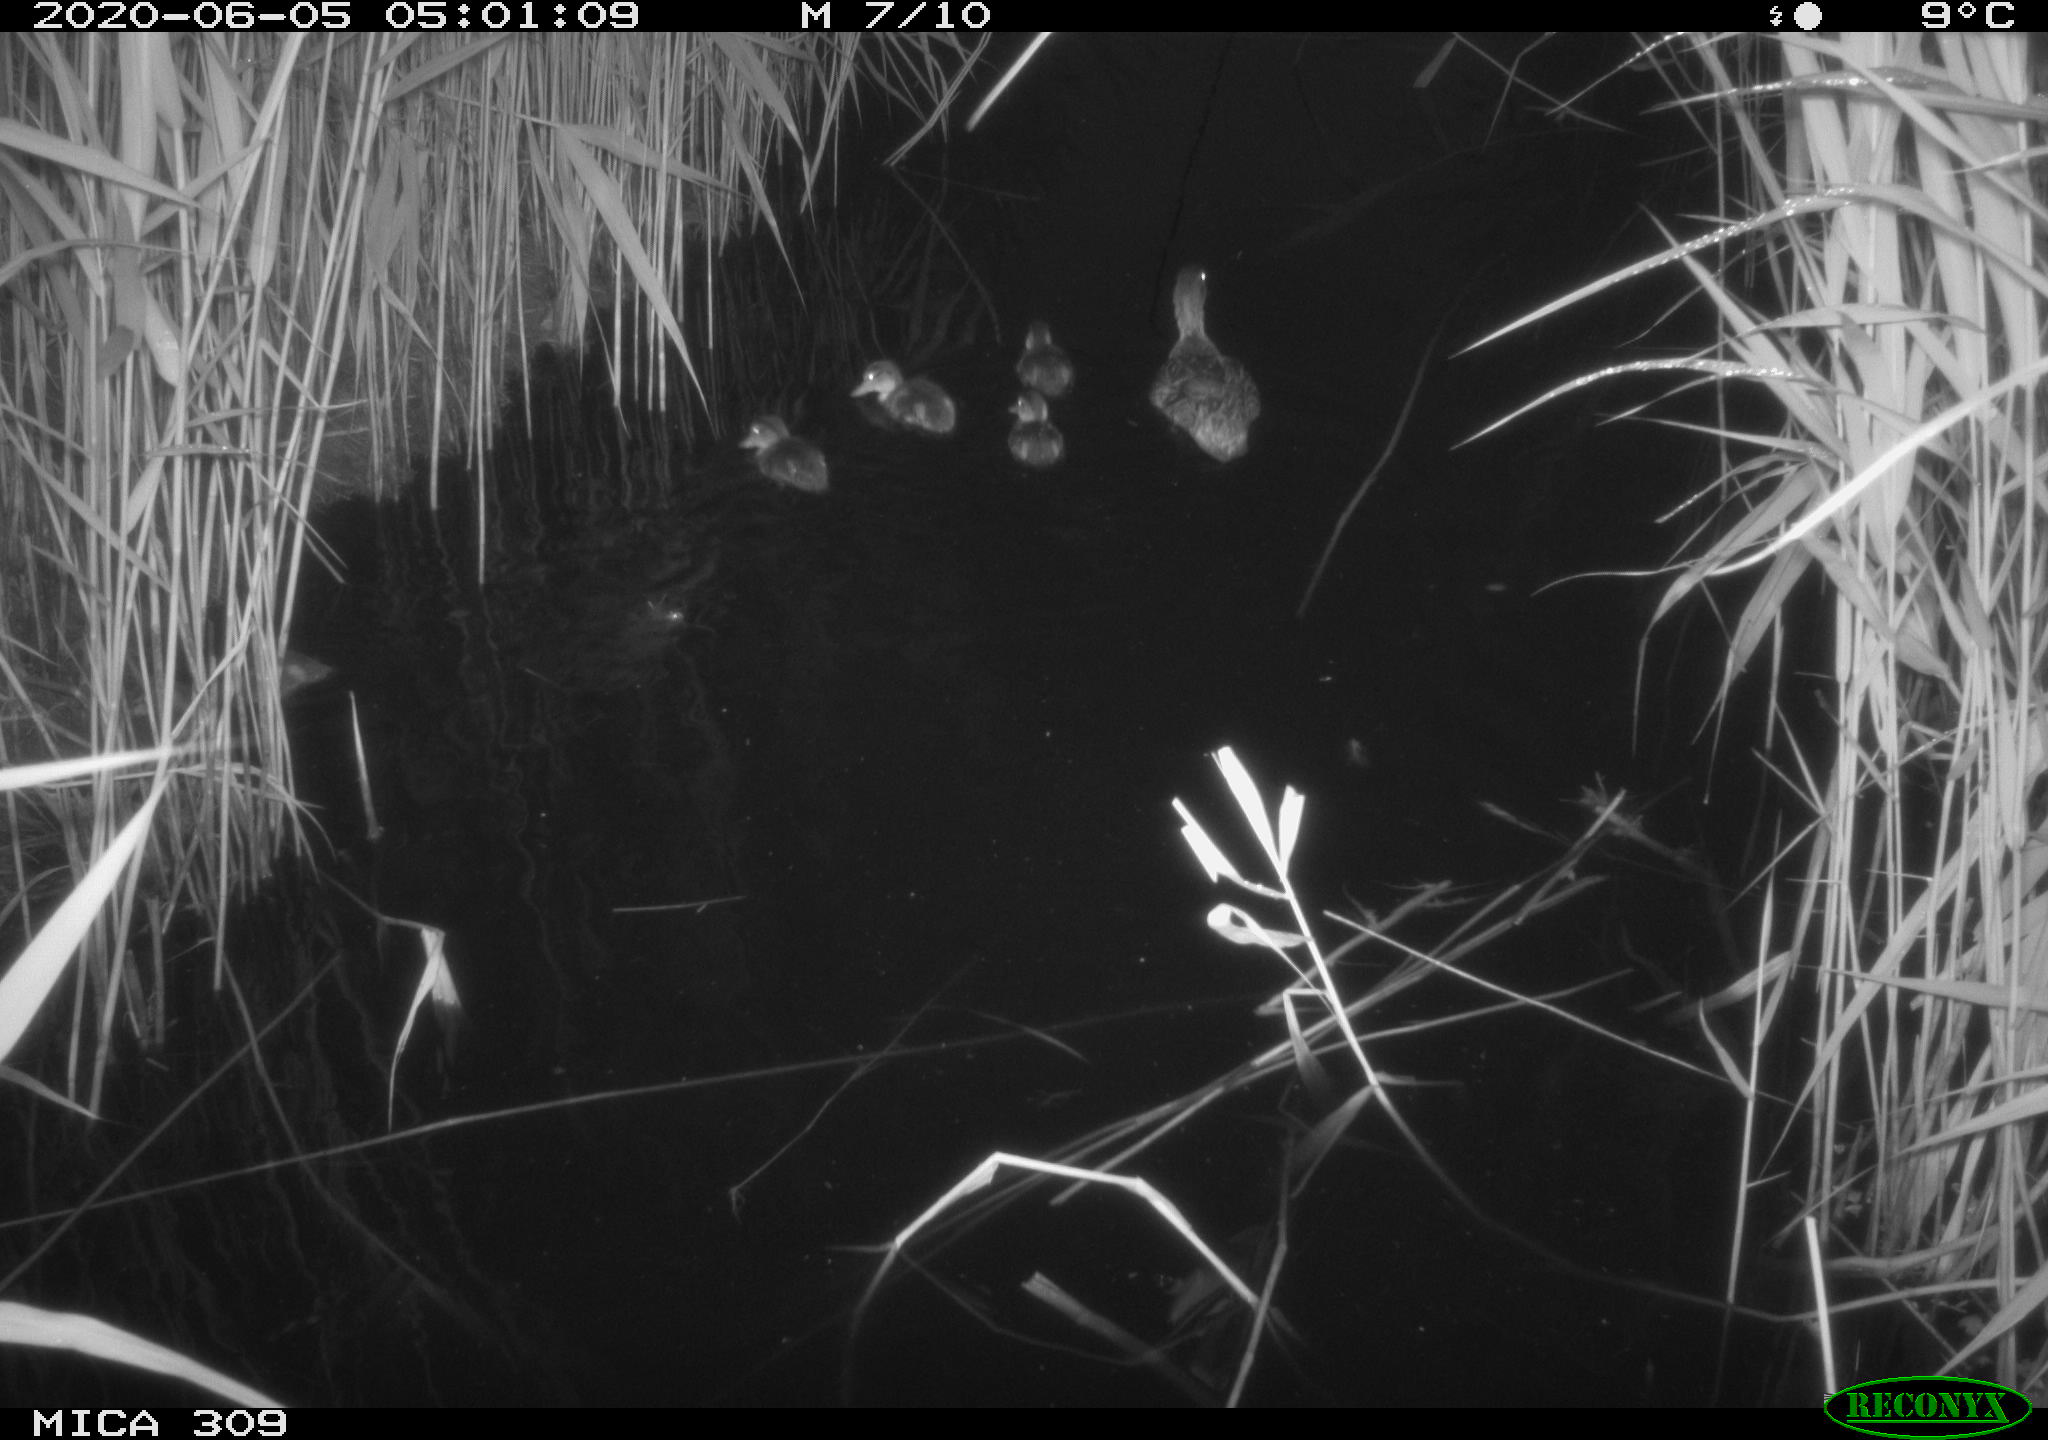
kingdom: Animalia
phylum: Chordata
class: Aves
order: Anseriformes
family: Anatidae
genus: Anas
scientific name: Anas platyrhynchos
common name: Mallard
